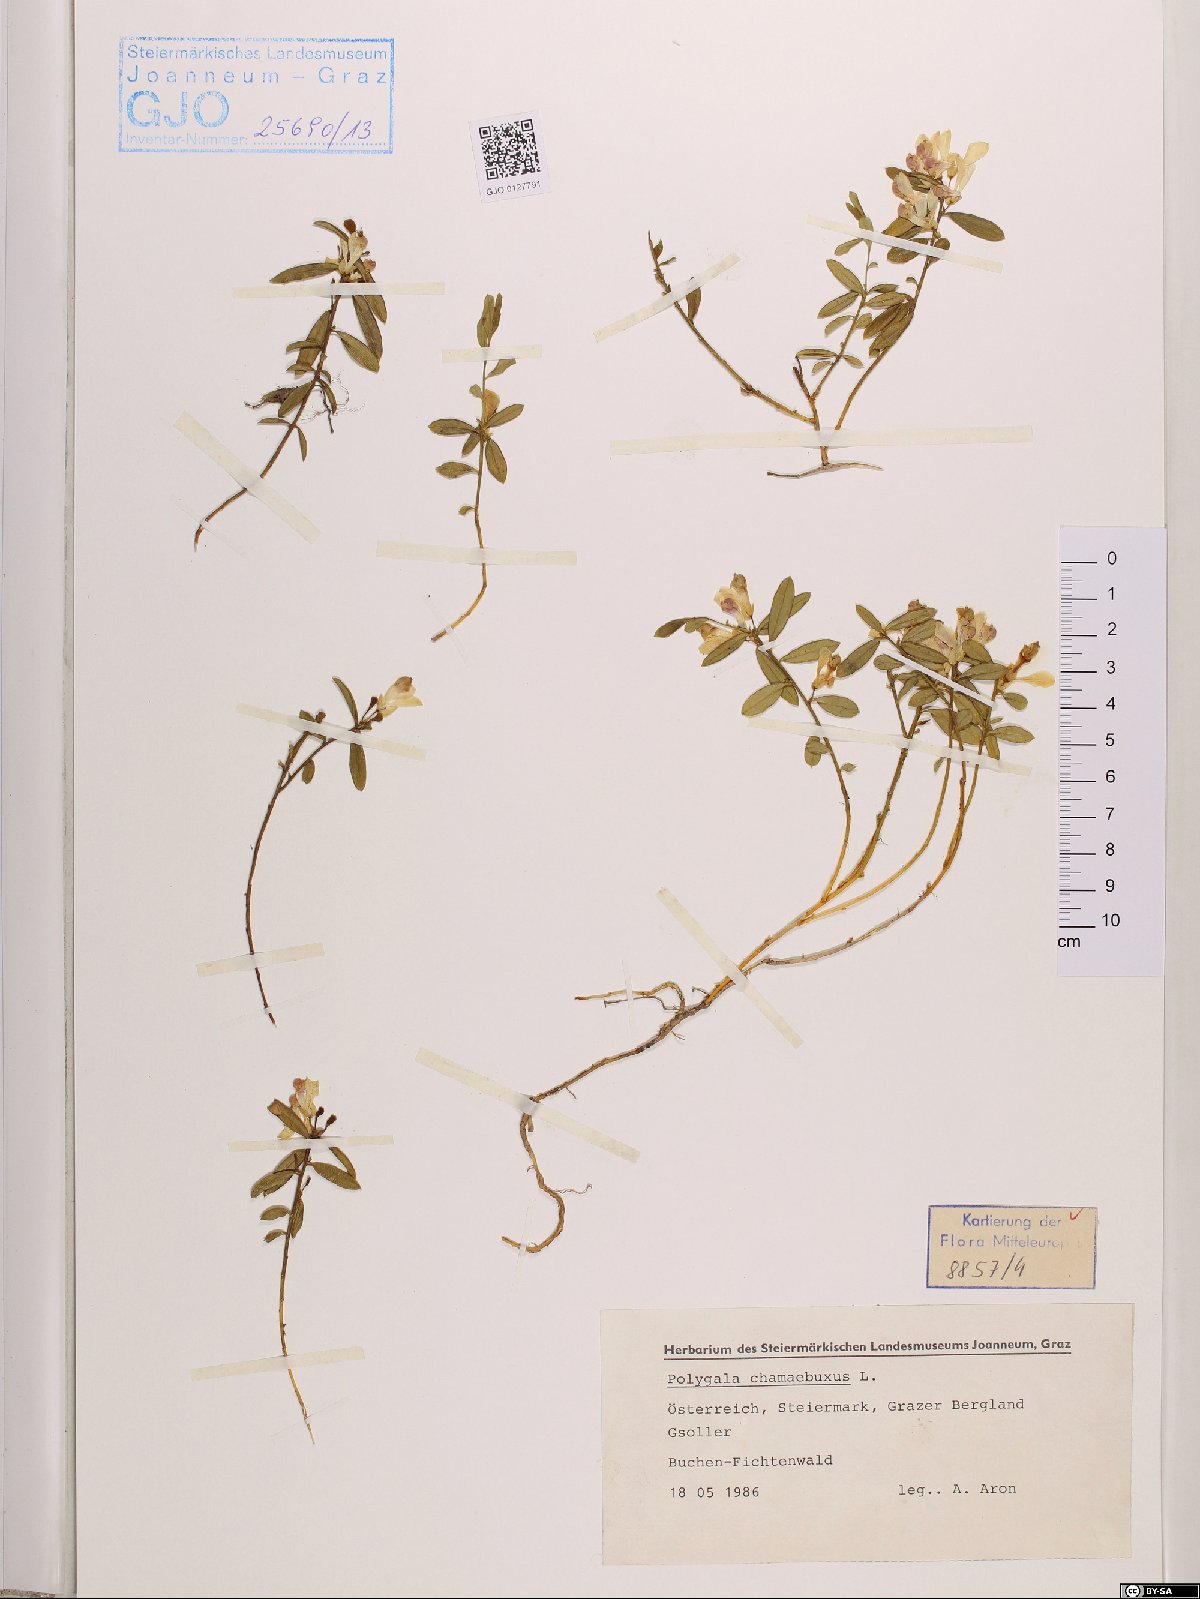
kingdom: Plantae
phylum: Tracheophyta
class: Magnoliopsida
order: Fabales
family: Polygalaceae
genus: Polygaloides
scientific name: Polygaloides chamaebuxus
